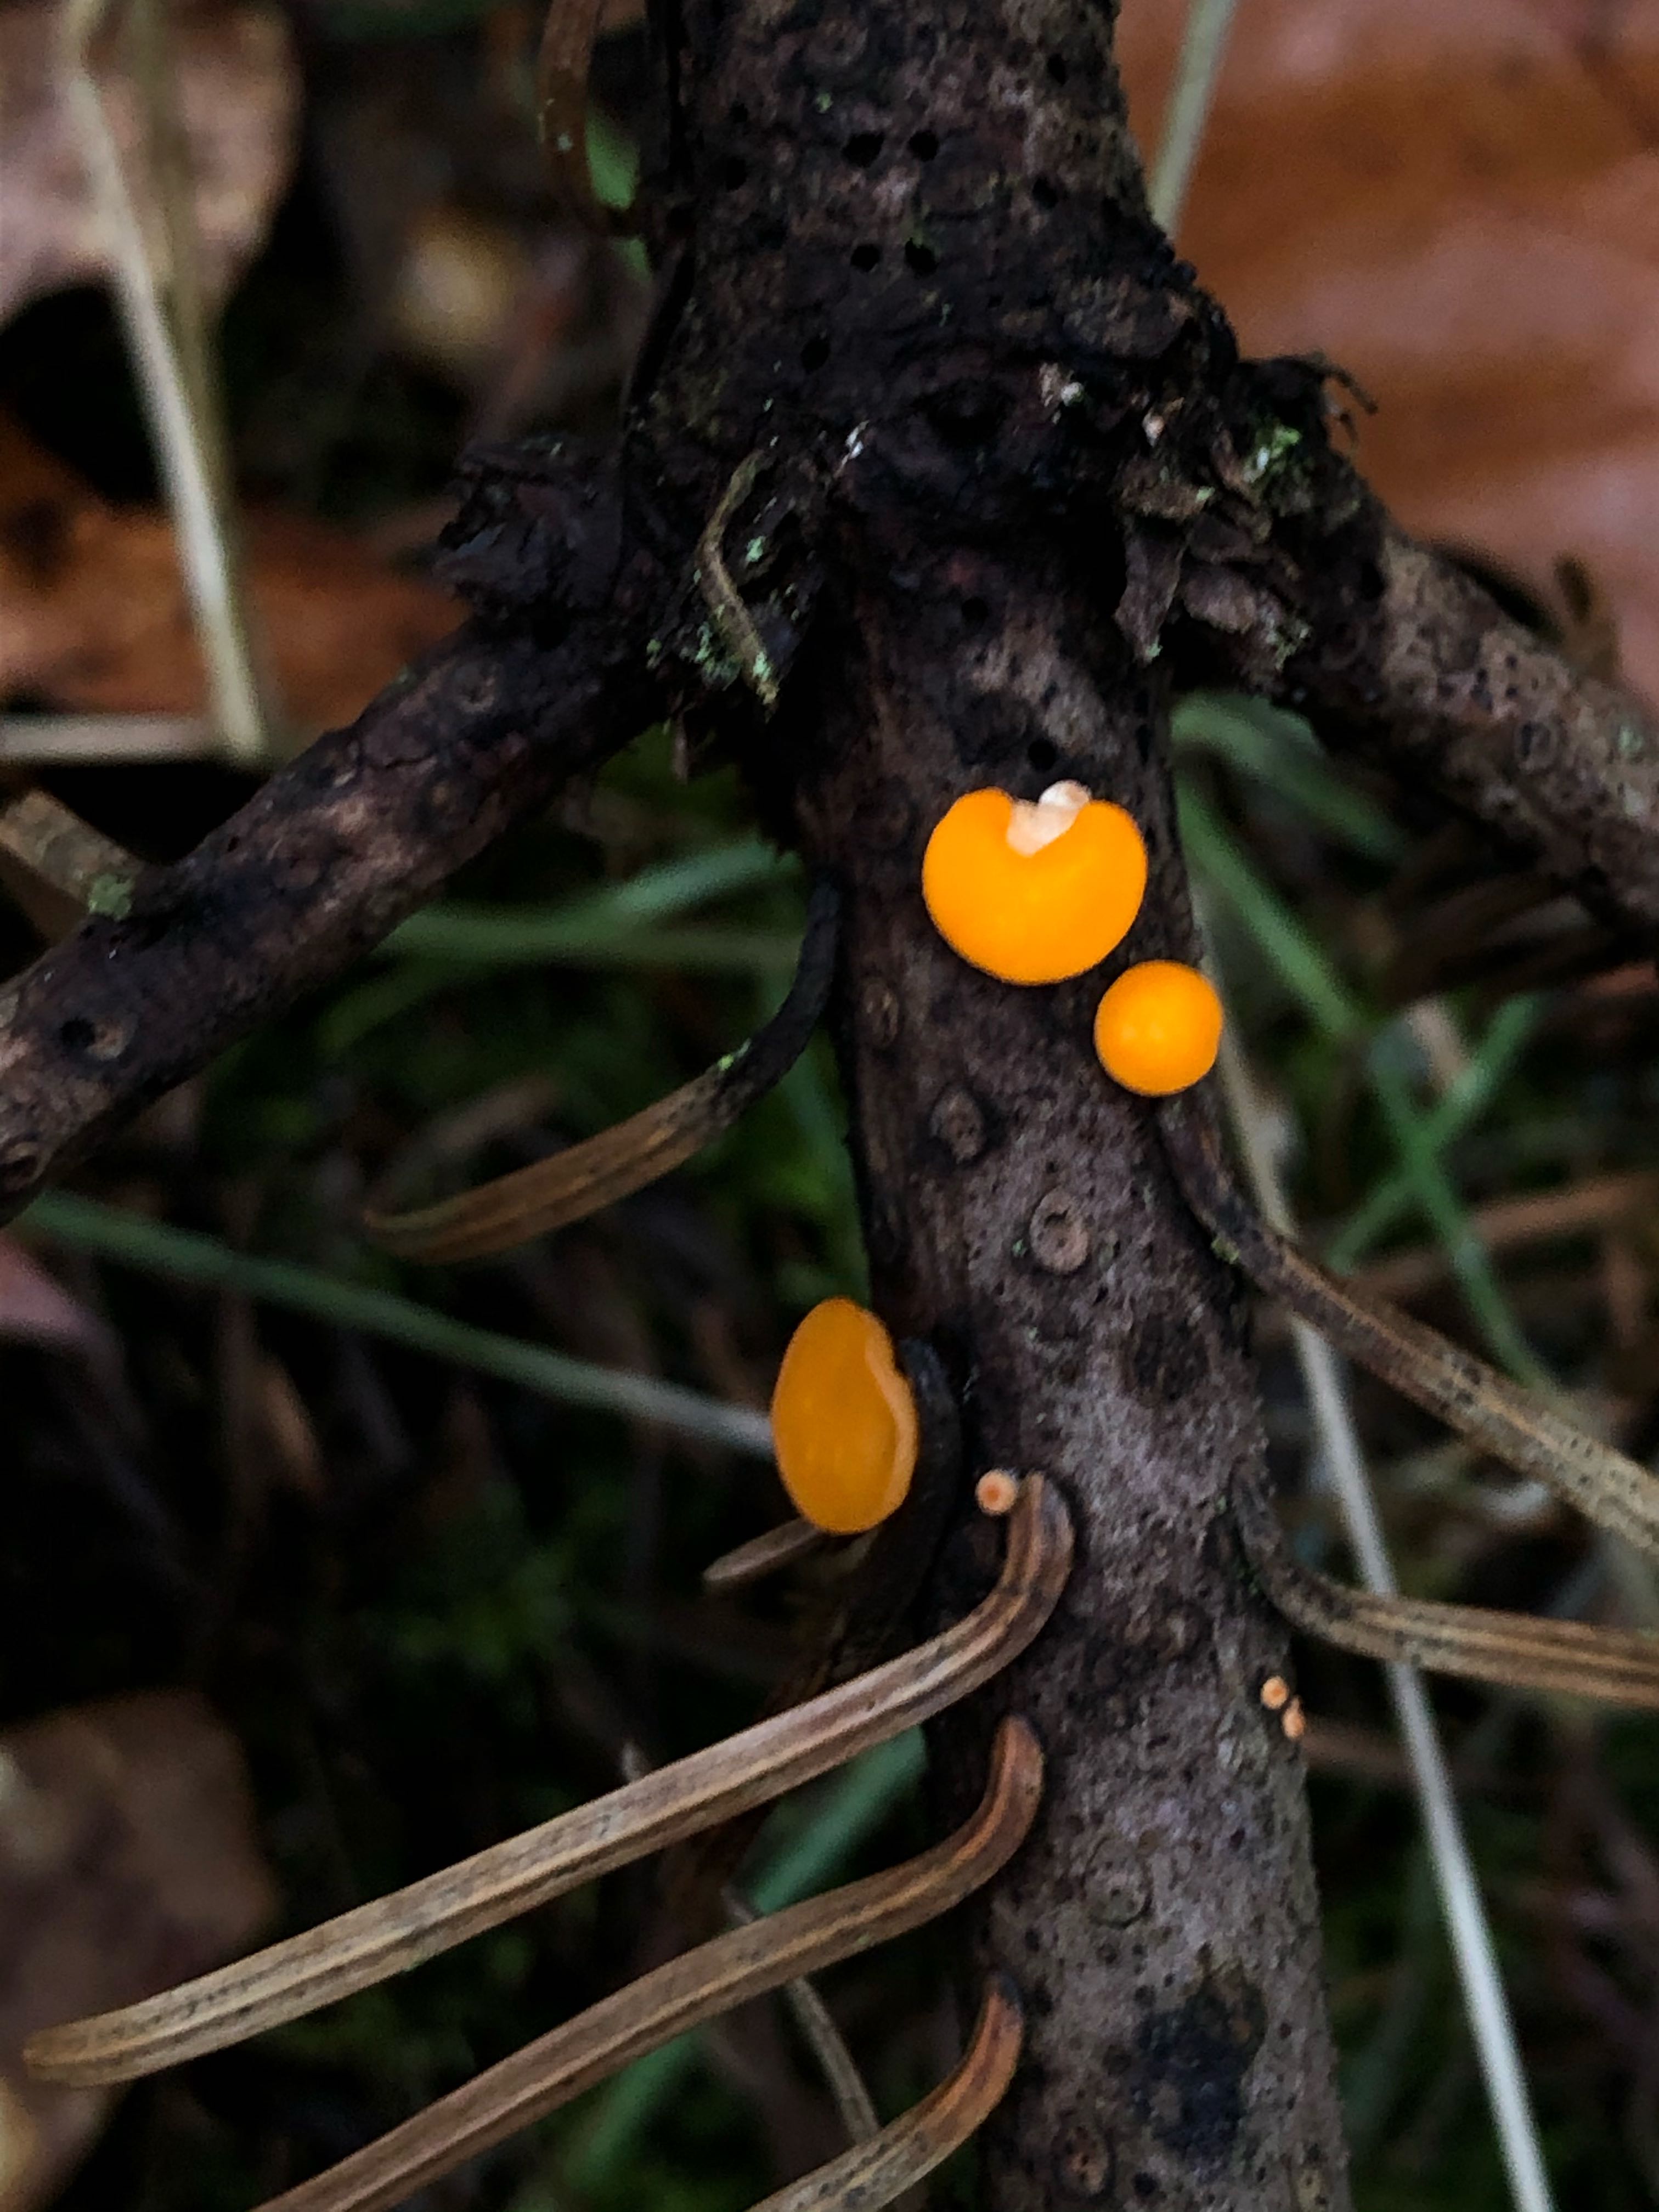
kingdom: Fungi
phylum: Ascomycota
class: Pezizomycetes
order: Pezizales
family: Sarcoscyphaceae
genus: Pithya
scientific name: Pithya vulgaris
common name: stor dukatbæger
